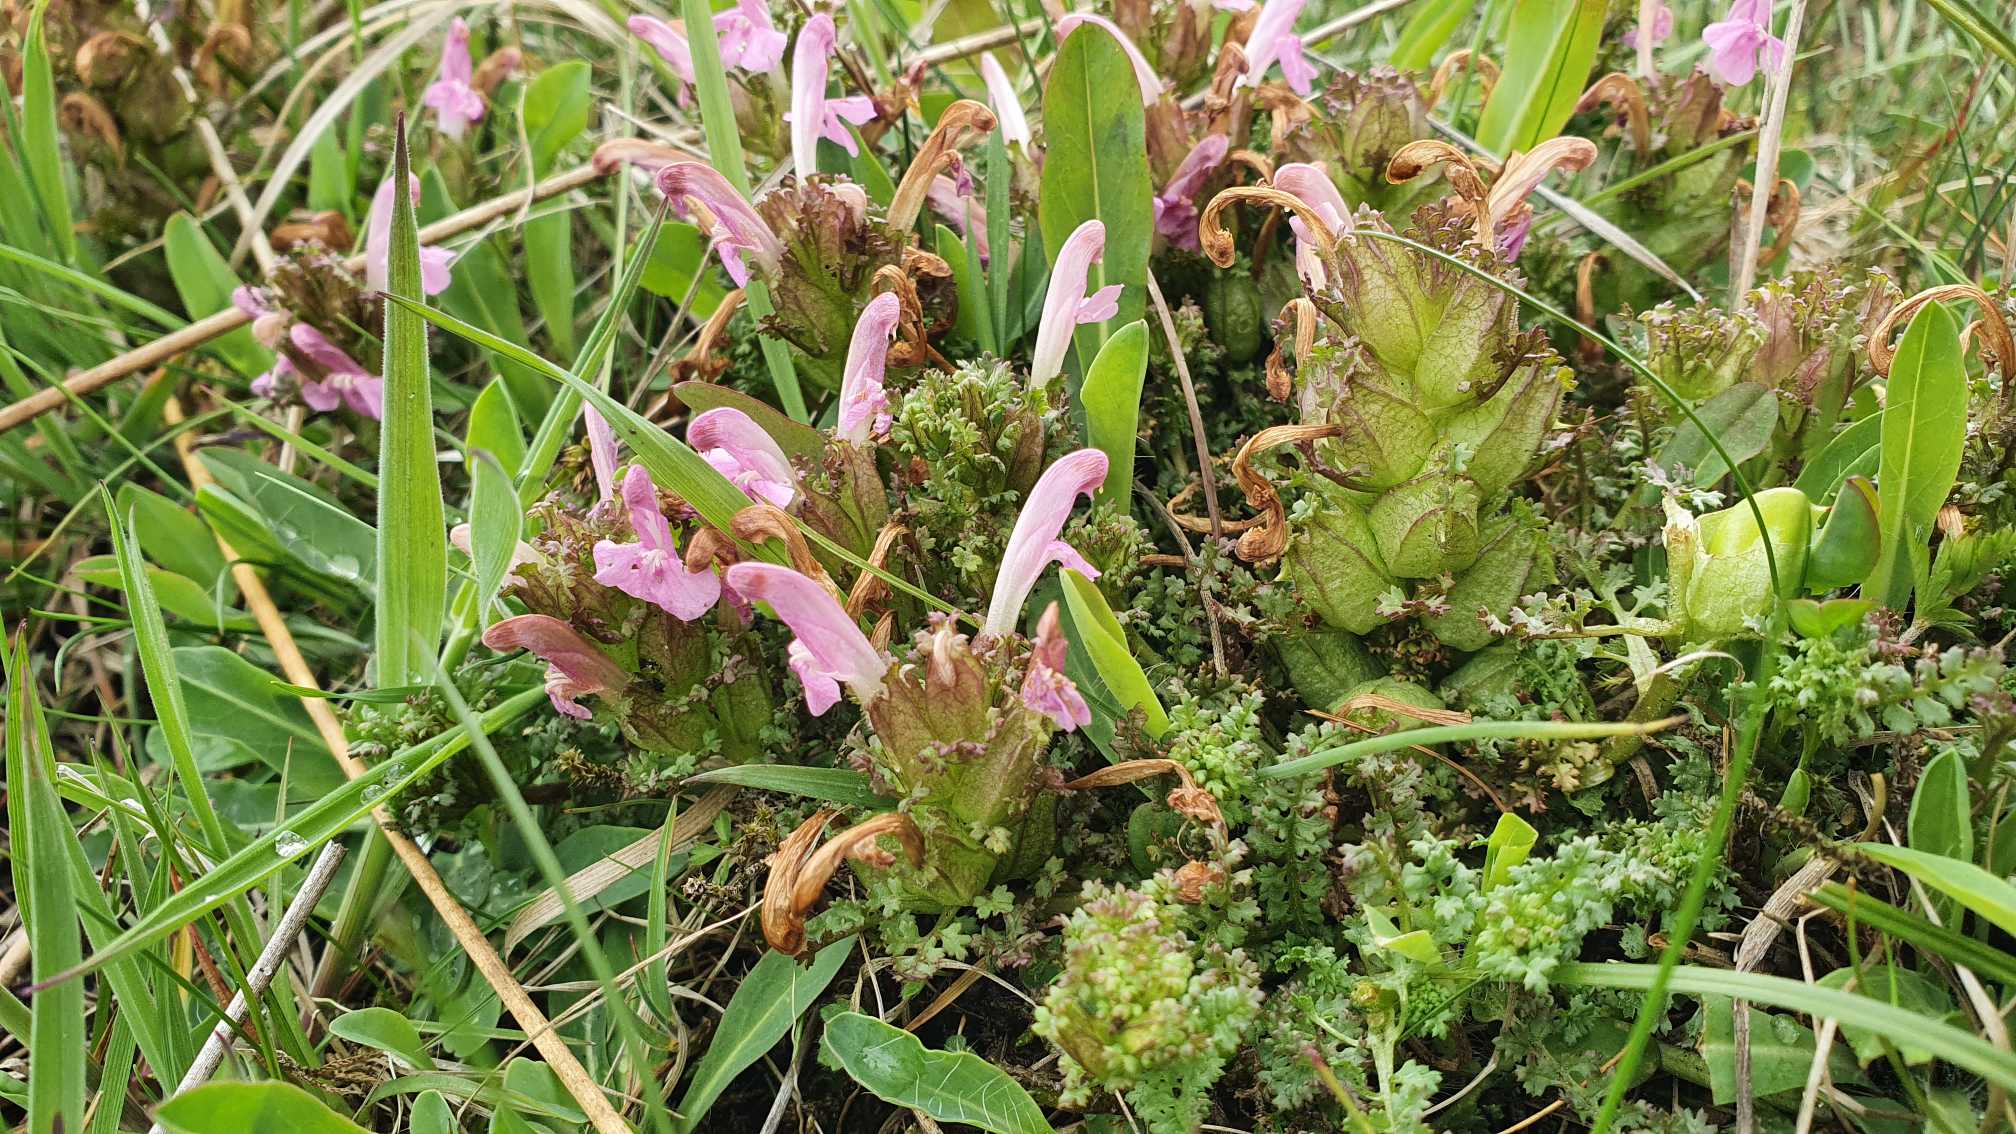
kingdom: Plantae
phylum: Tracheophyta
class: Magnoliopsida
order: Lamiales
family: Orobanchaceae
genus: Pedicularis
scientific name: Pedicularis sylvatica
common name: Mose-troldurt
